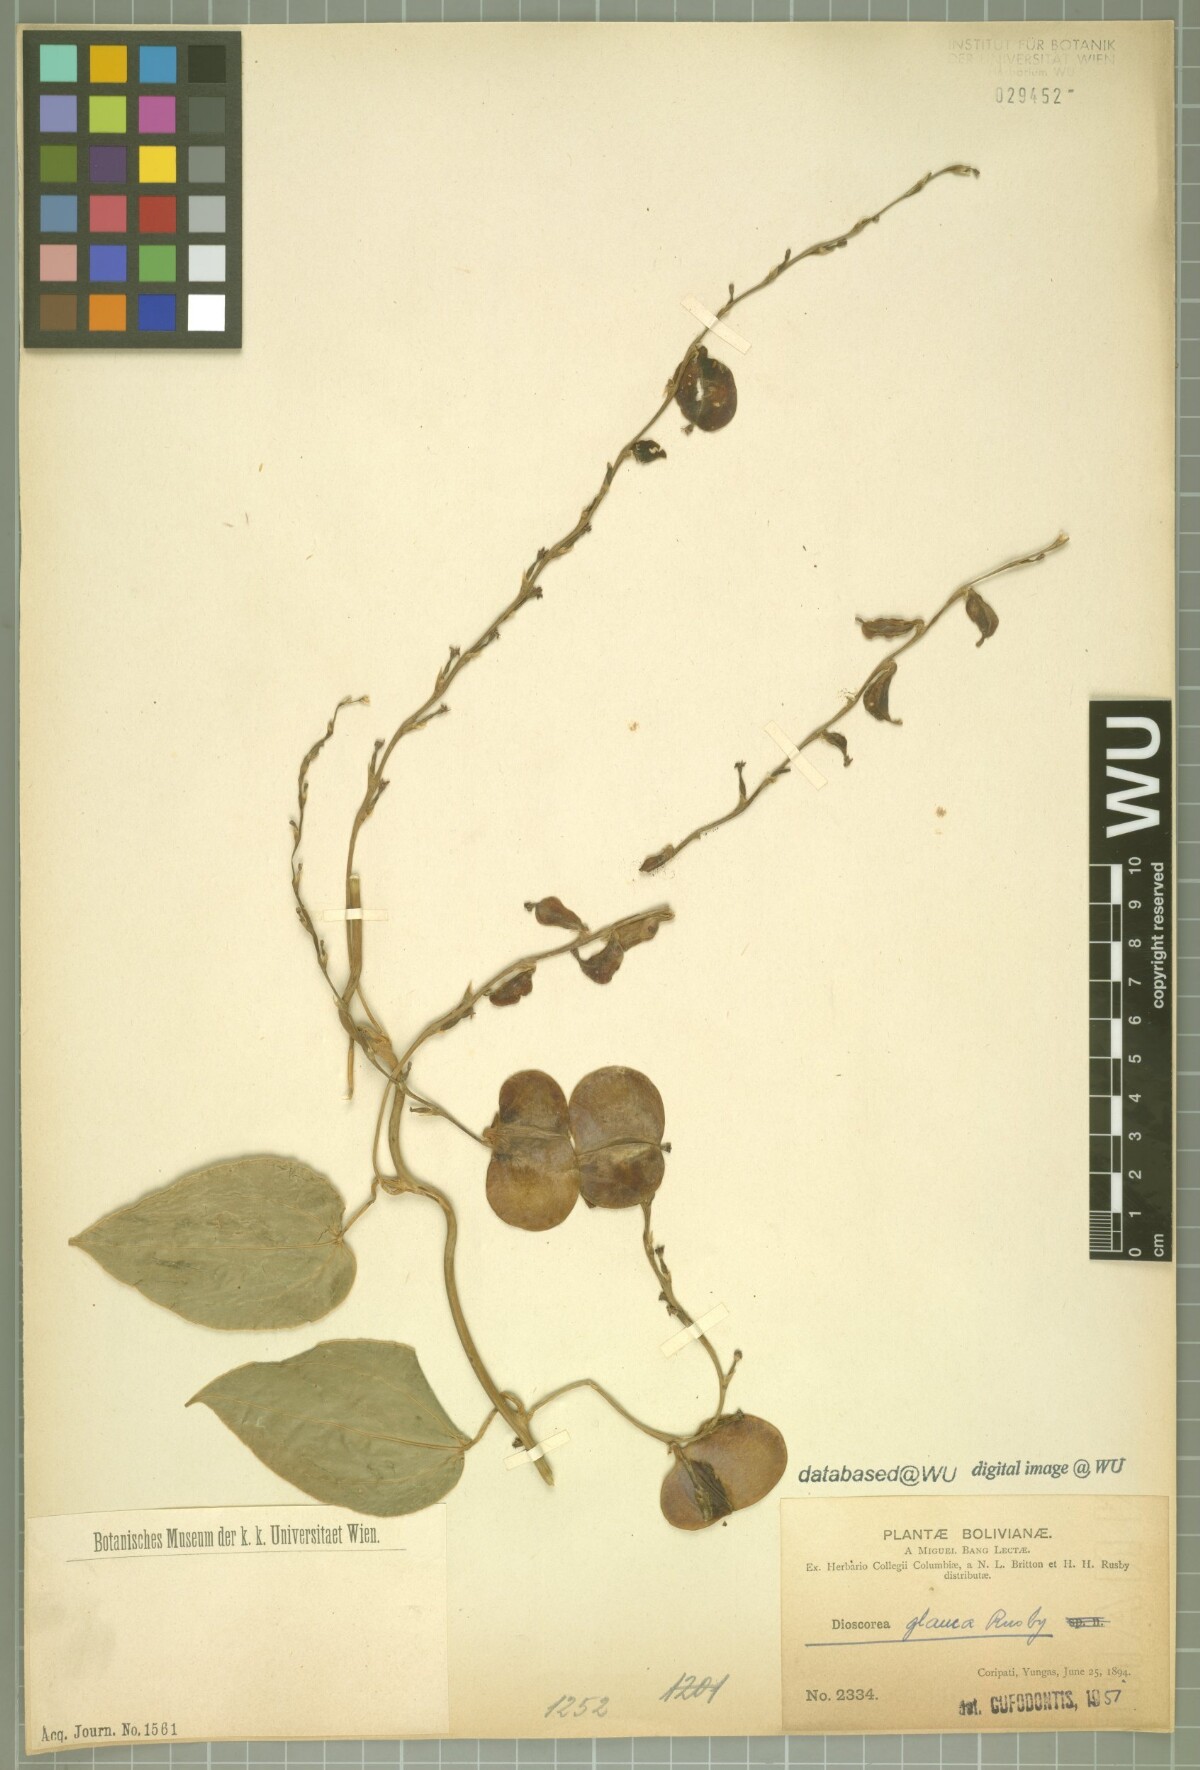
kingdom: Plantae
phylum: Tracheophyta
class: Liliopsida
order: Dioscoreales
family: Dioscoreaceae
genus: Dioscorea
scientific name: Dioscorea glauca
